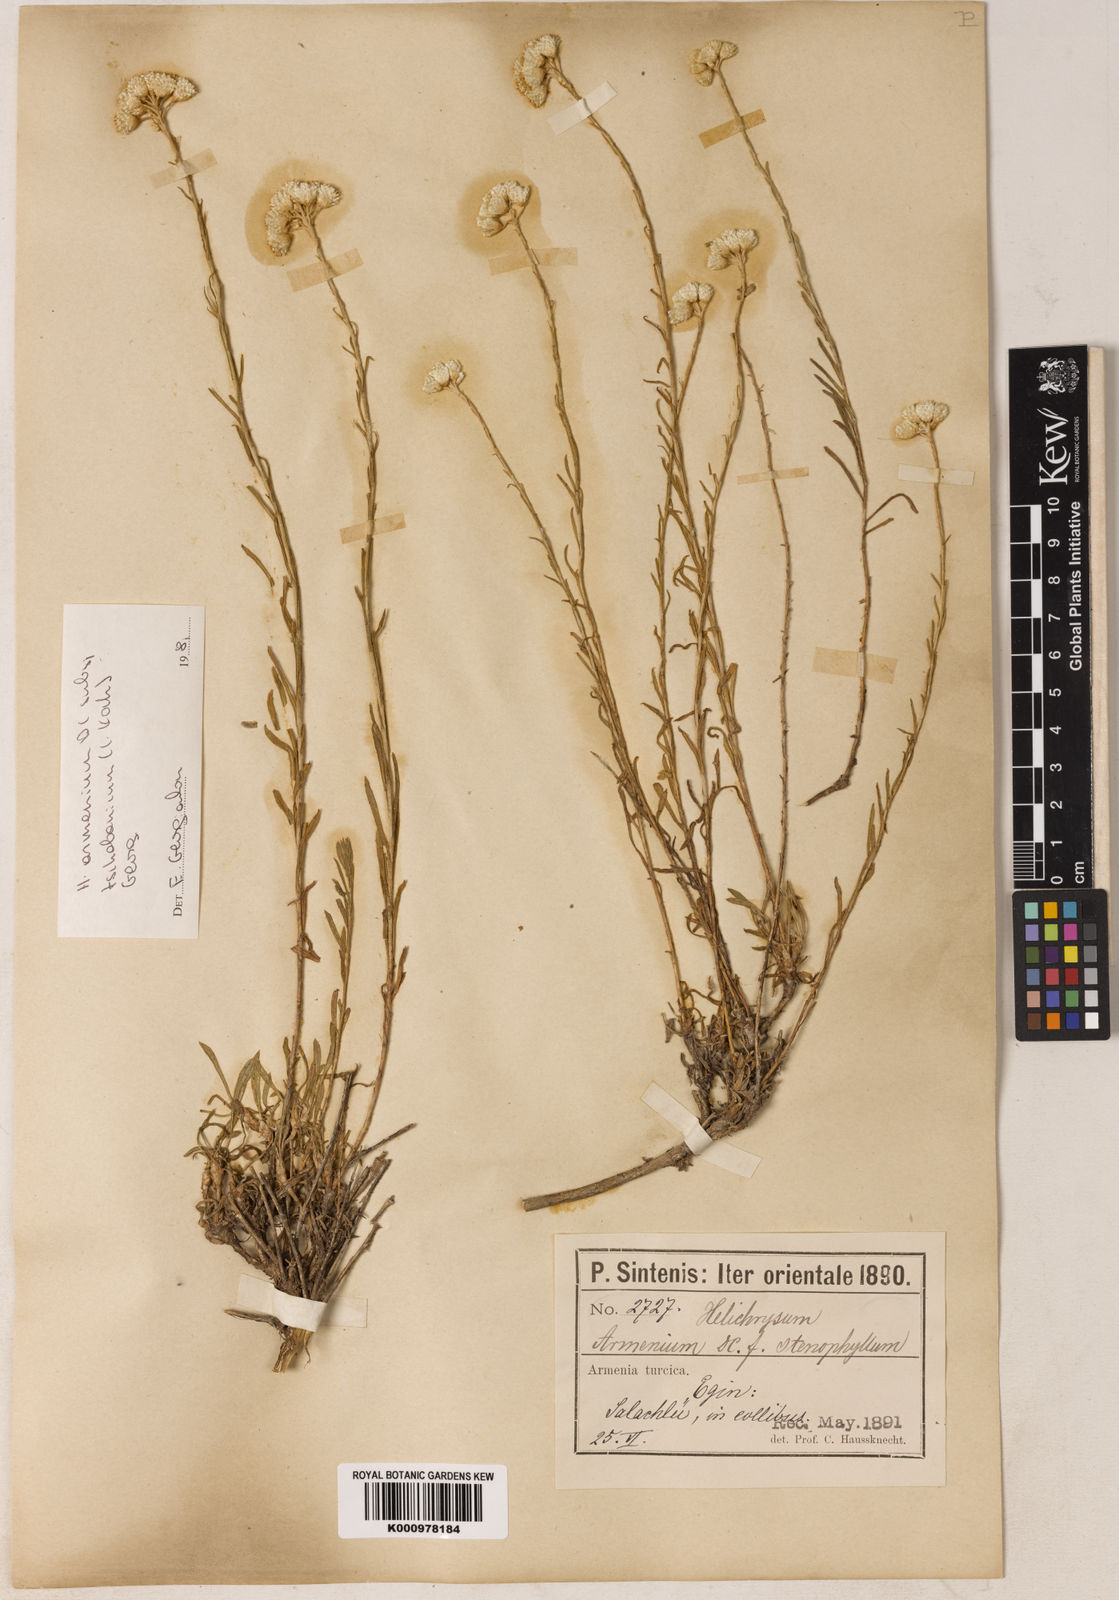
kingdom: Plantae
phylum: Tracheophyta
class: Magnoliopsida
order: Asterales
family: Asteraceae
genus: Helichrysum
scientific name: Helichrysum armenium
